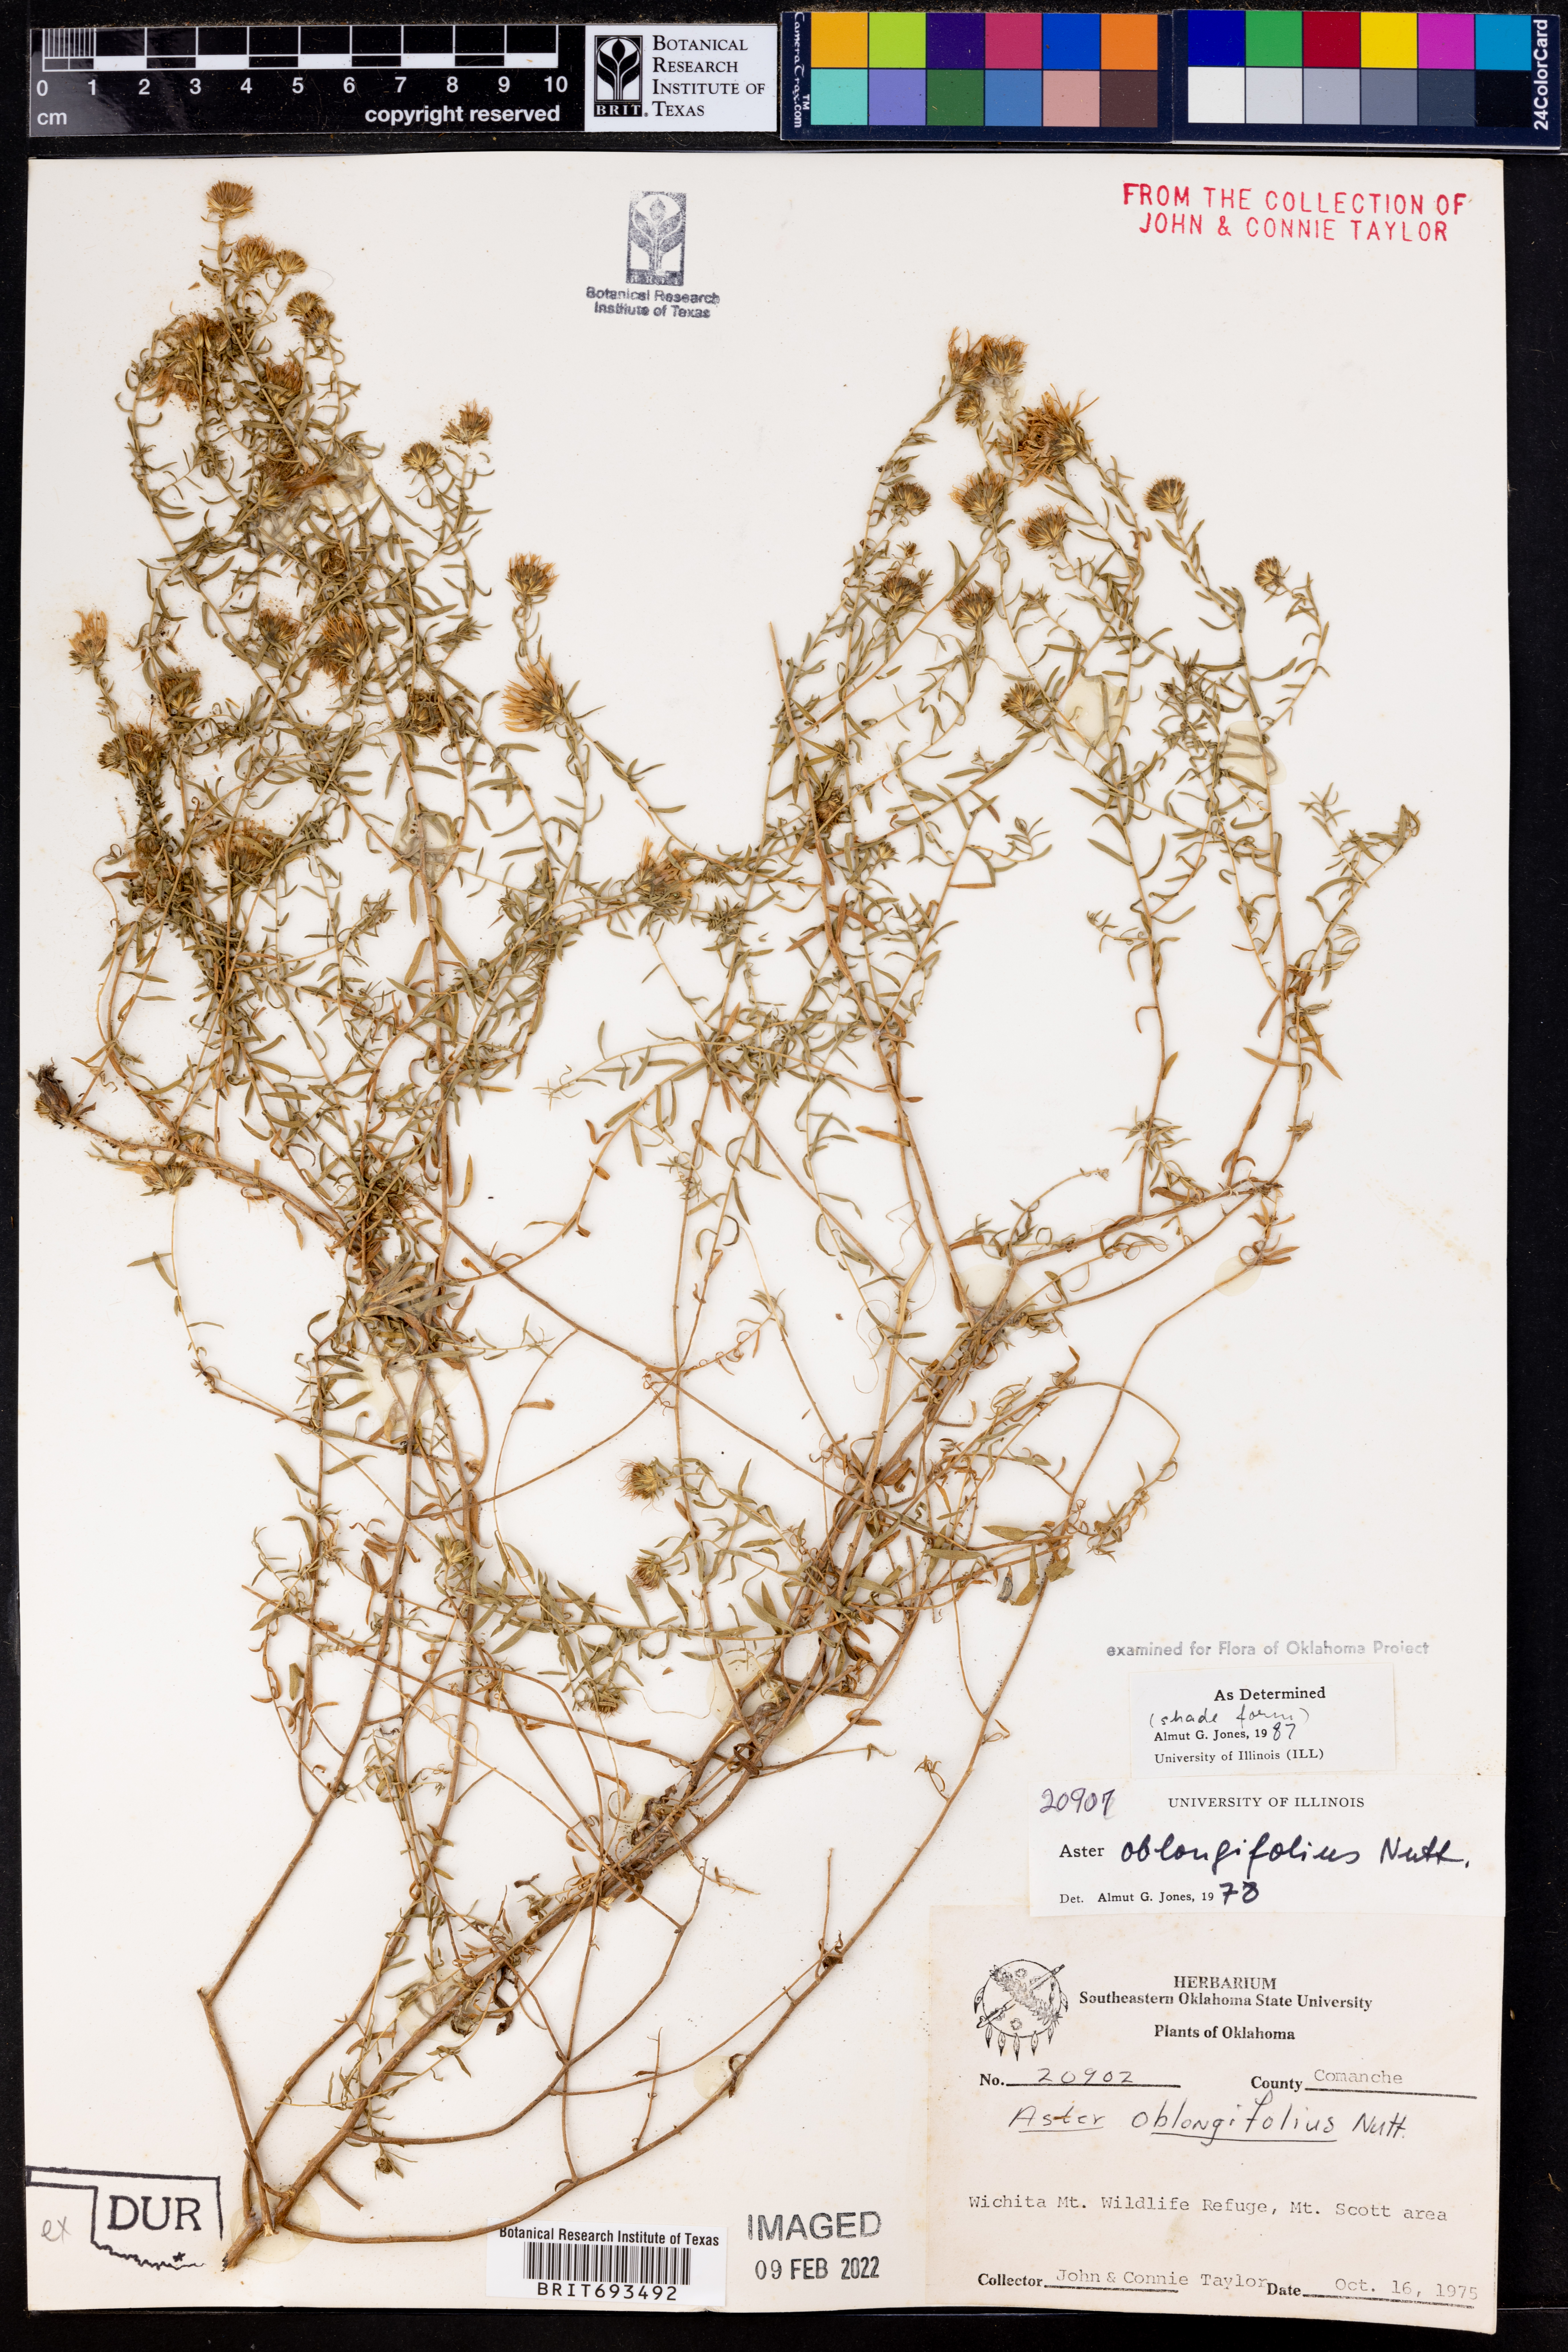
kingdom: Plantae
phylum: Tracheophyta
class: Magnoliopsida
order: Asterales
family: Asteraceae
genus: Symphyotrichum
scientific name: Symphyotrichum oblongifolium
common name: Aromatic aster
